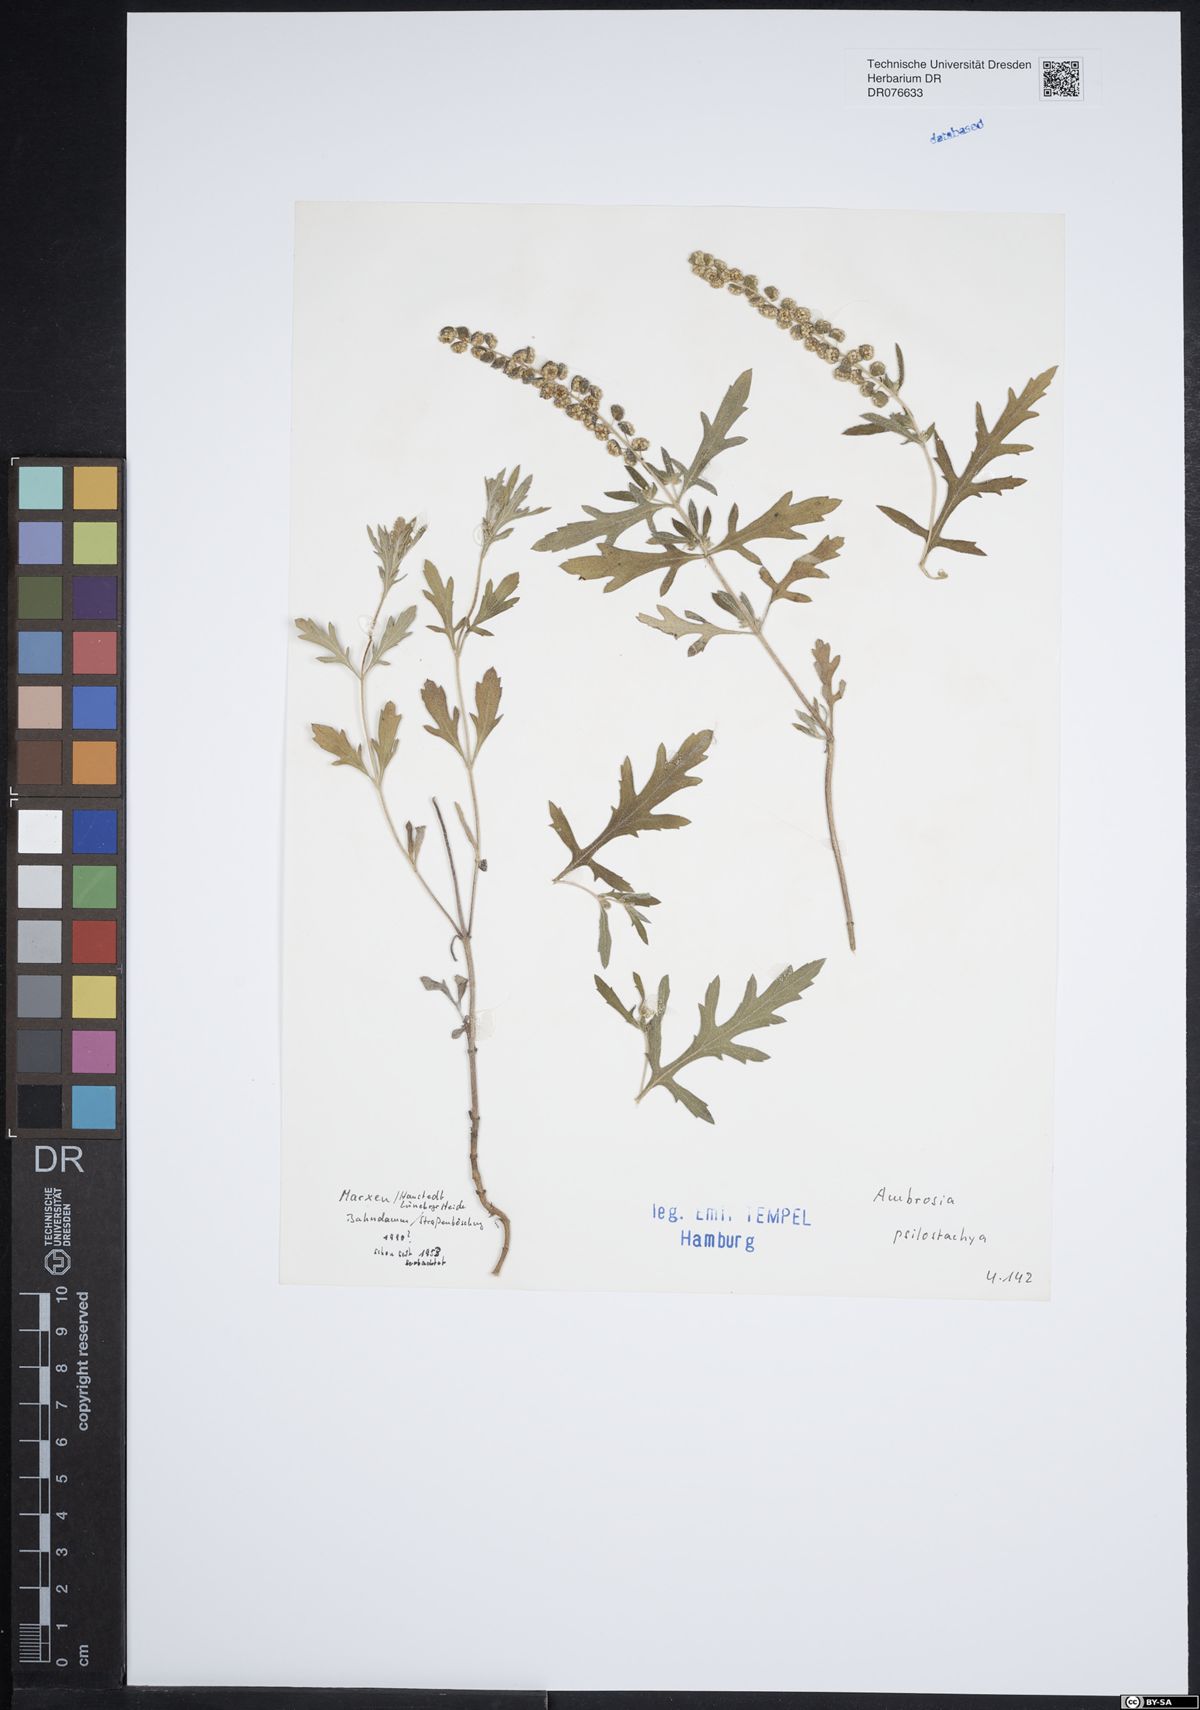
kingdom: Plantae
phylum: Tracheophyta
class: Magnoliopsida
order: Asterales
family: Asteraceae
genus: Ambrosia
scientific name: Ambrosia psilostachya
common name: Perennial ragweed
